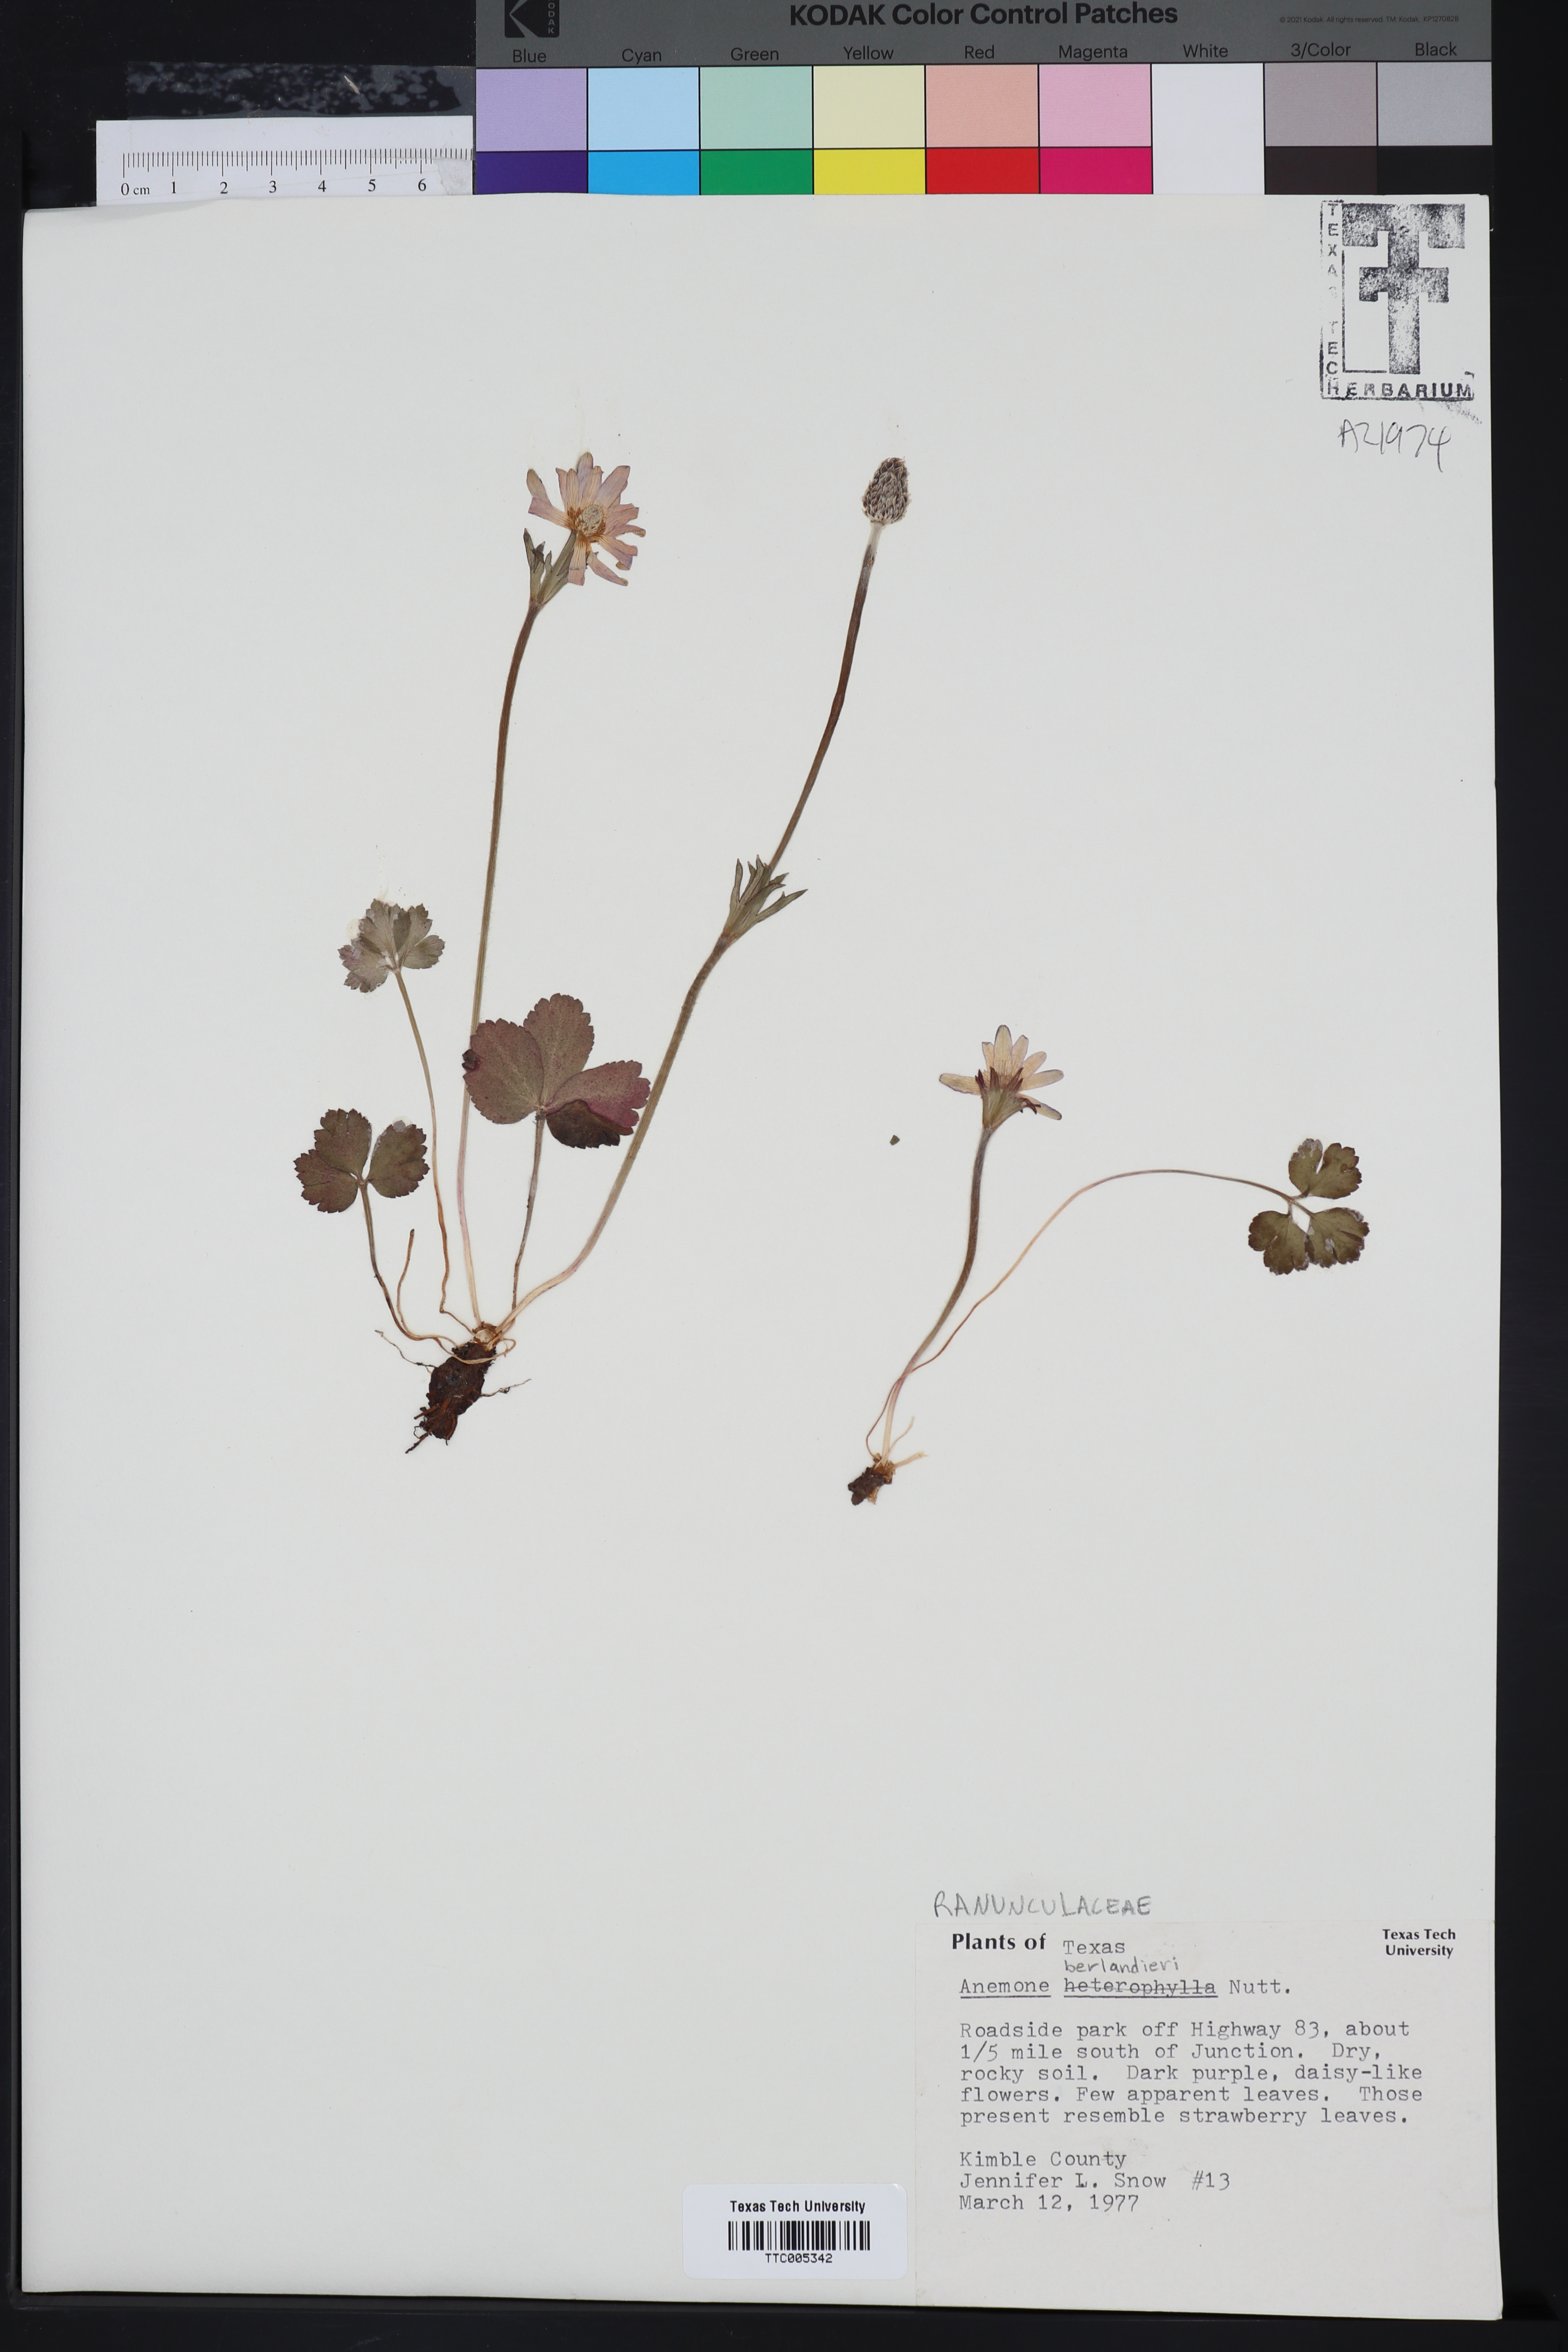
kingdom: Plantae
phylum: Tracheophyta
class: Magnoliopsida
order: Cucurbitales
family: Apodanthaceae
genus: Pilostyles
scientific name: Pilostyles thurberi
